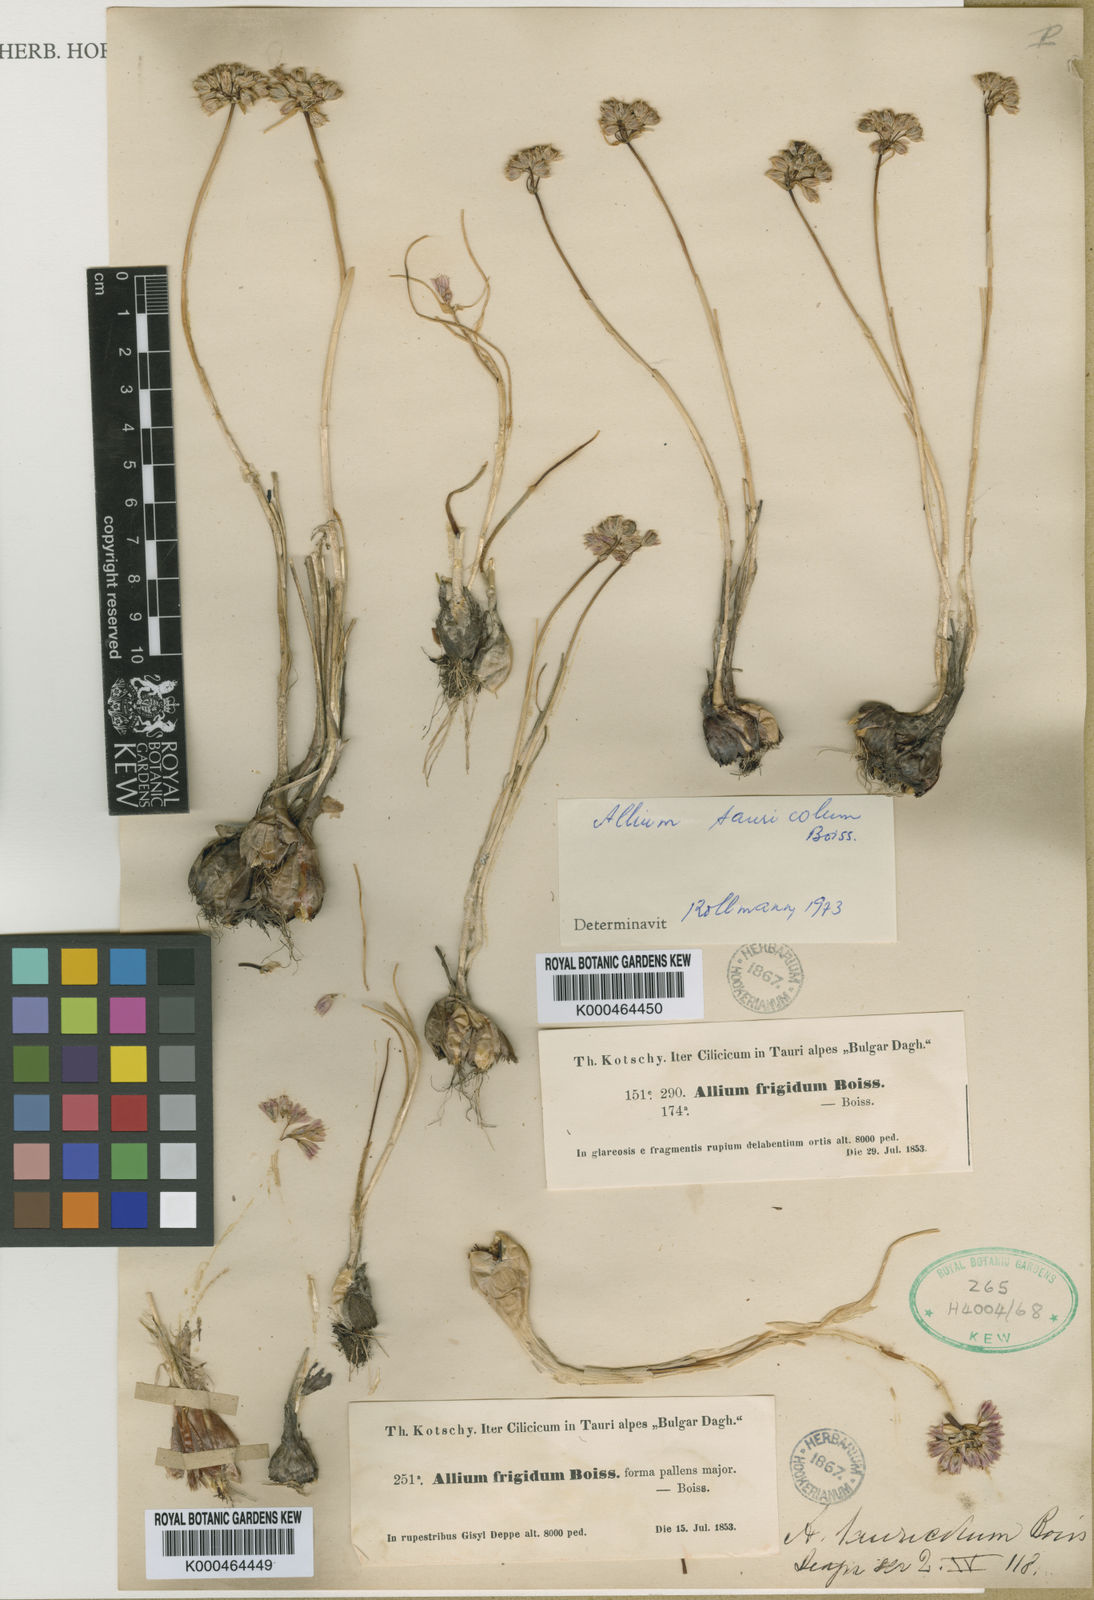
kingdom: Plantae
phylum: Tracheophyta
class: Liliopsida
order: Asparagales
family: Amaryllidaceae
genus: Allium
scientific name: Allium frigidum
